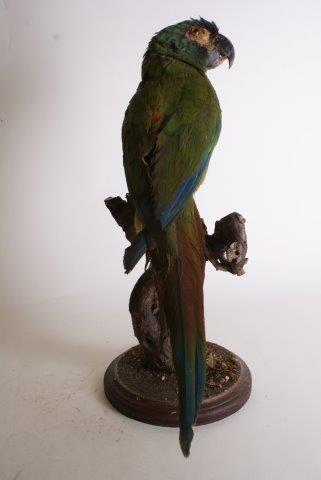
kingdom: Animalia
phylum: Chordata
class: Aves
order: Psittaciformes
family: Psittacidae
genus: Ara
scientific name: Ara severus
